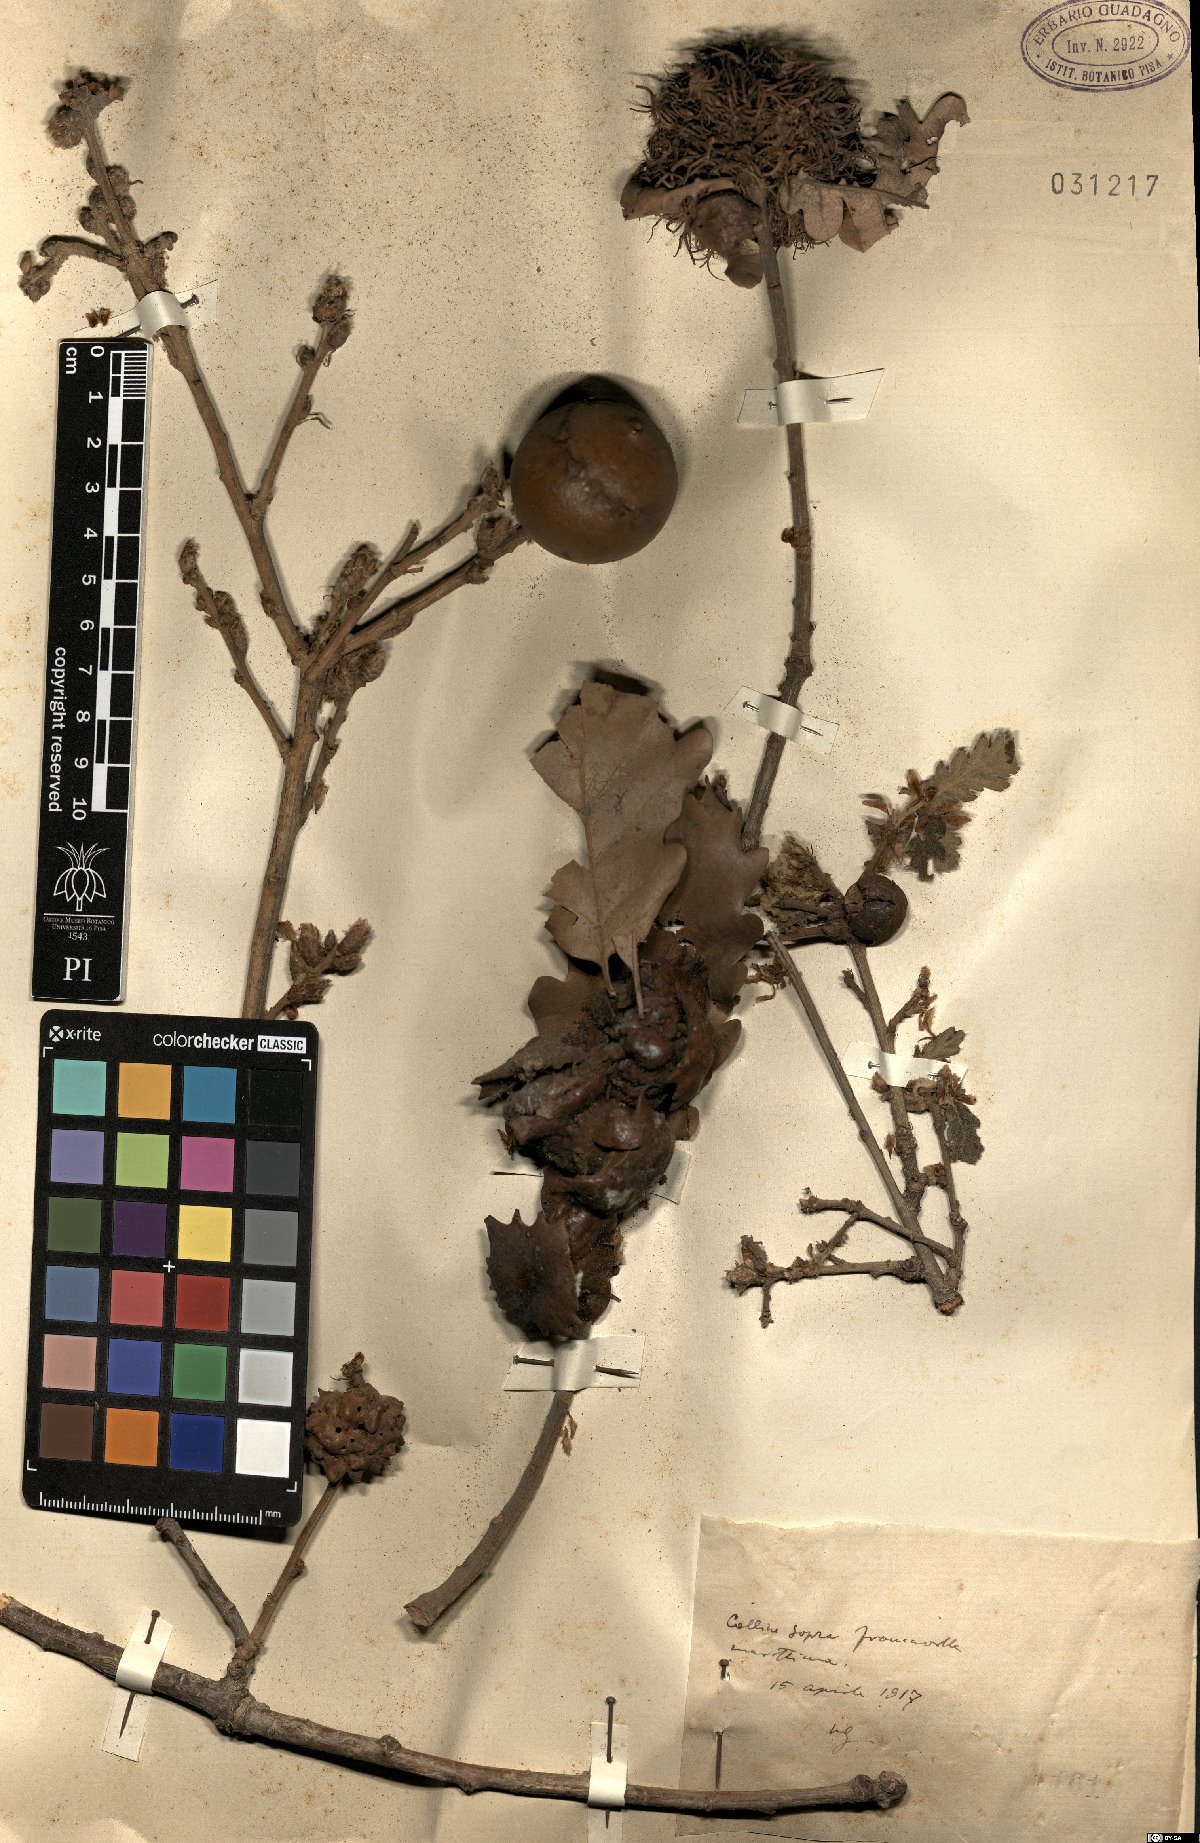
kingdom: Plantae
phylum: Tracheophyta
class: Magnoliopsida
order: Fagales
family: Fagaceae
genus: Quercus
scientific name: Quercus
